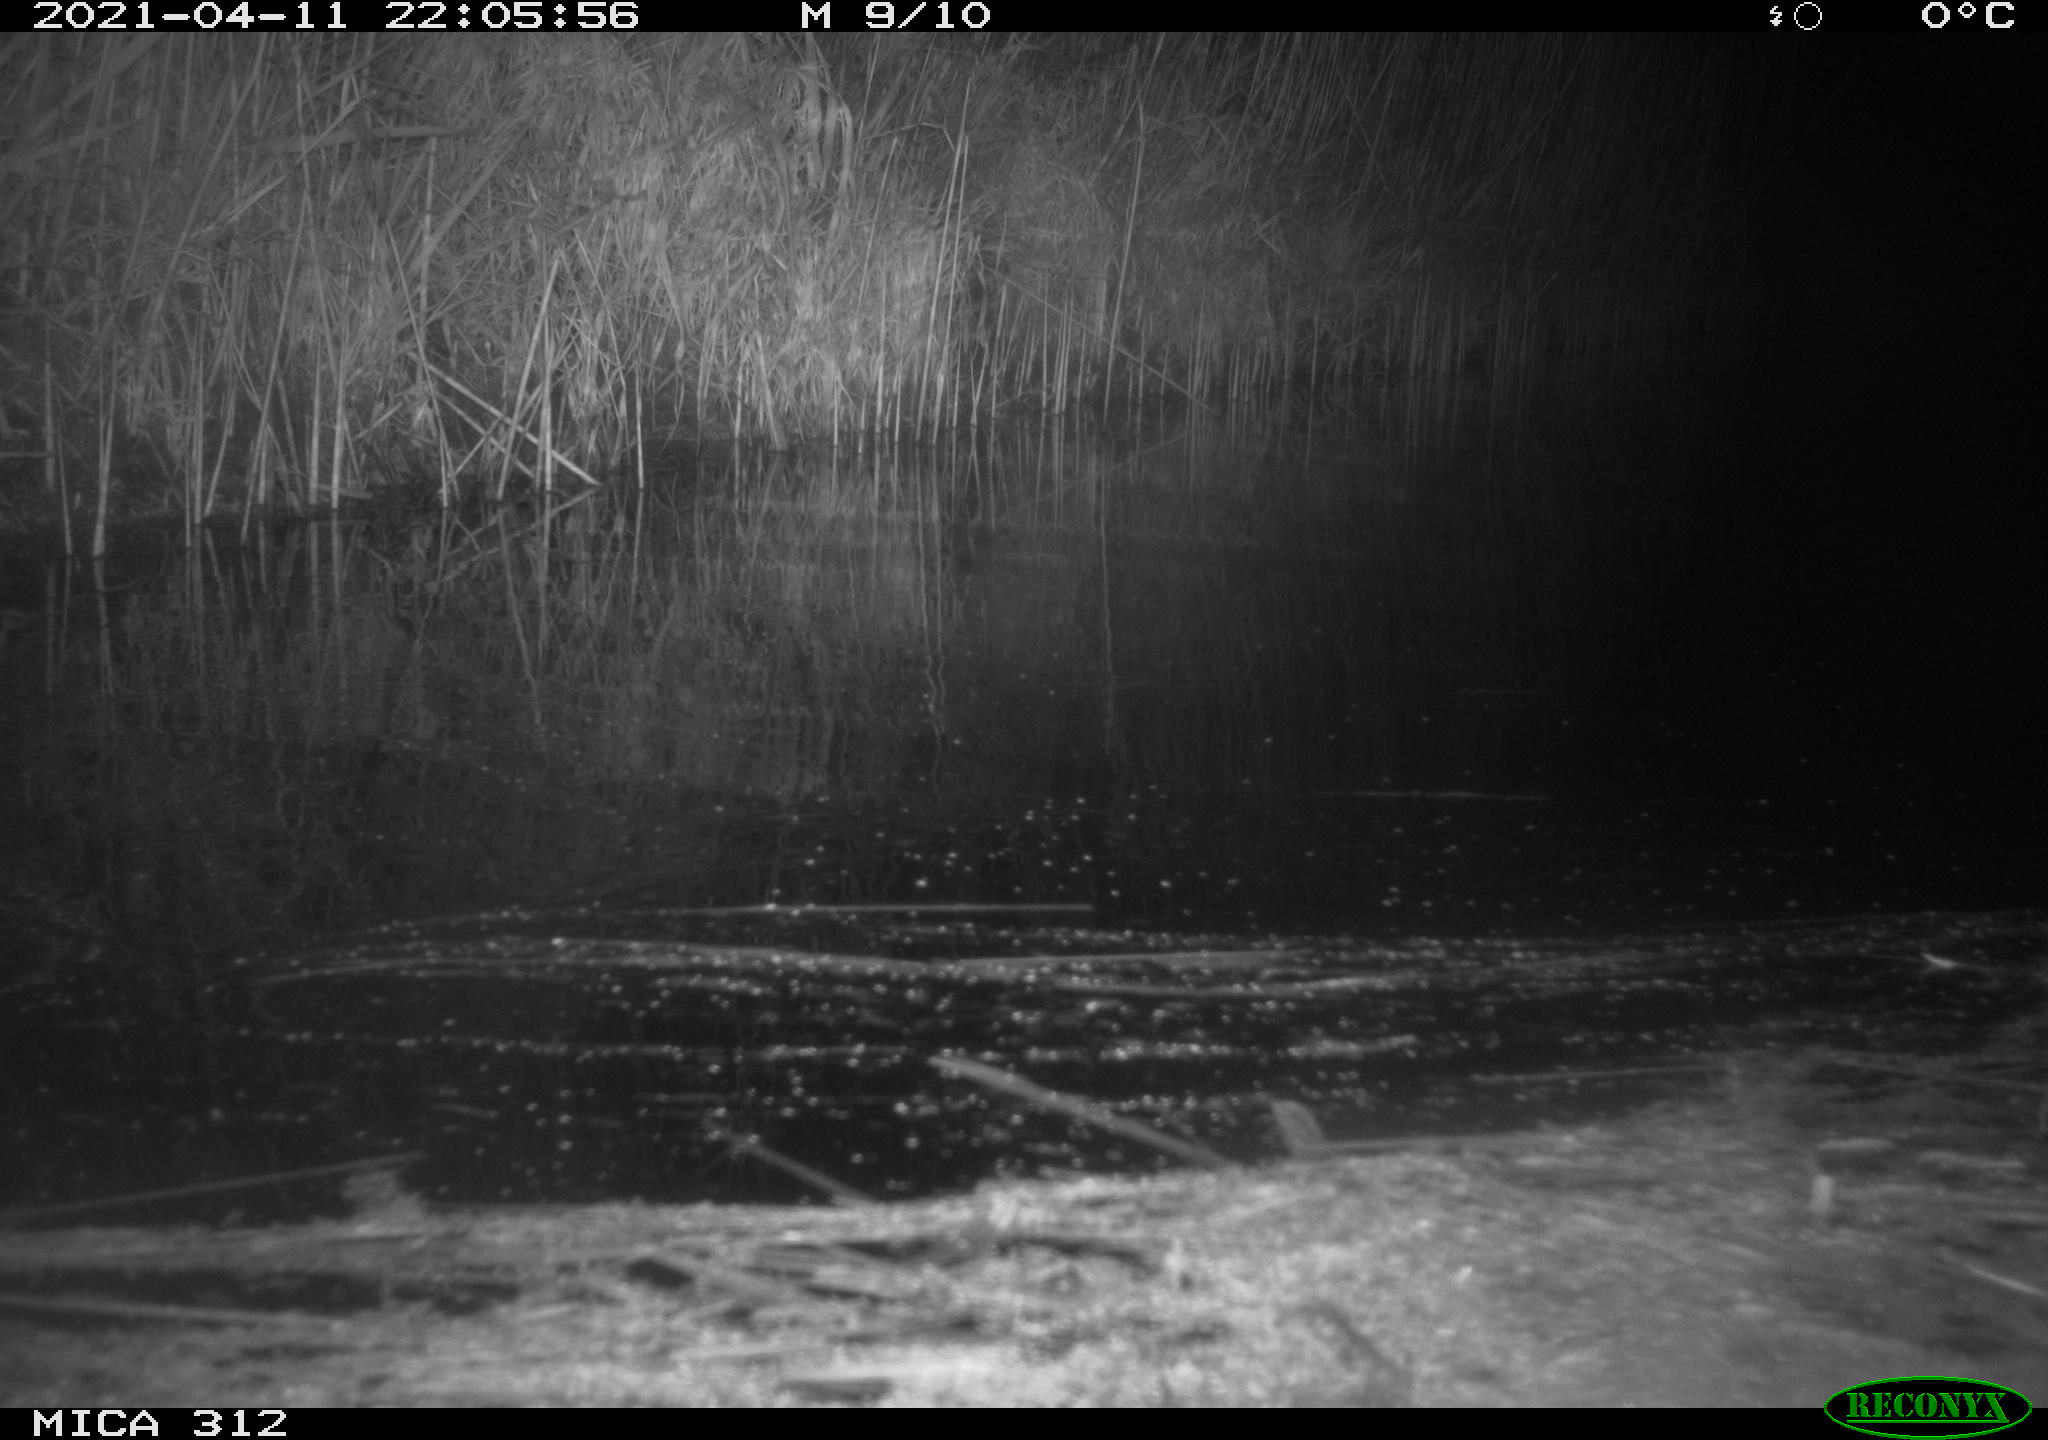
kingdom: Animalia
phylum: Chordata
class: Aves
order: Gruiformes
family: Rallidae
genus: Fulica
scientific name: Fulica atra
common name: Eurasian coot
